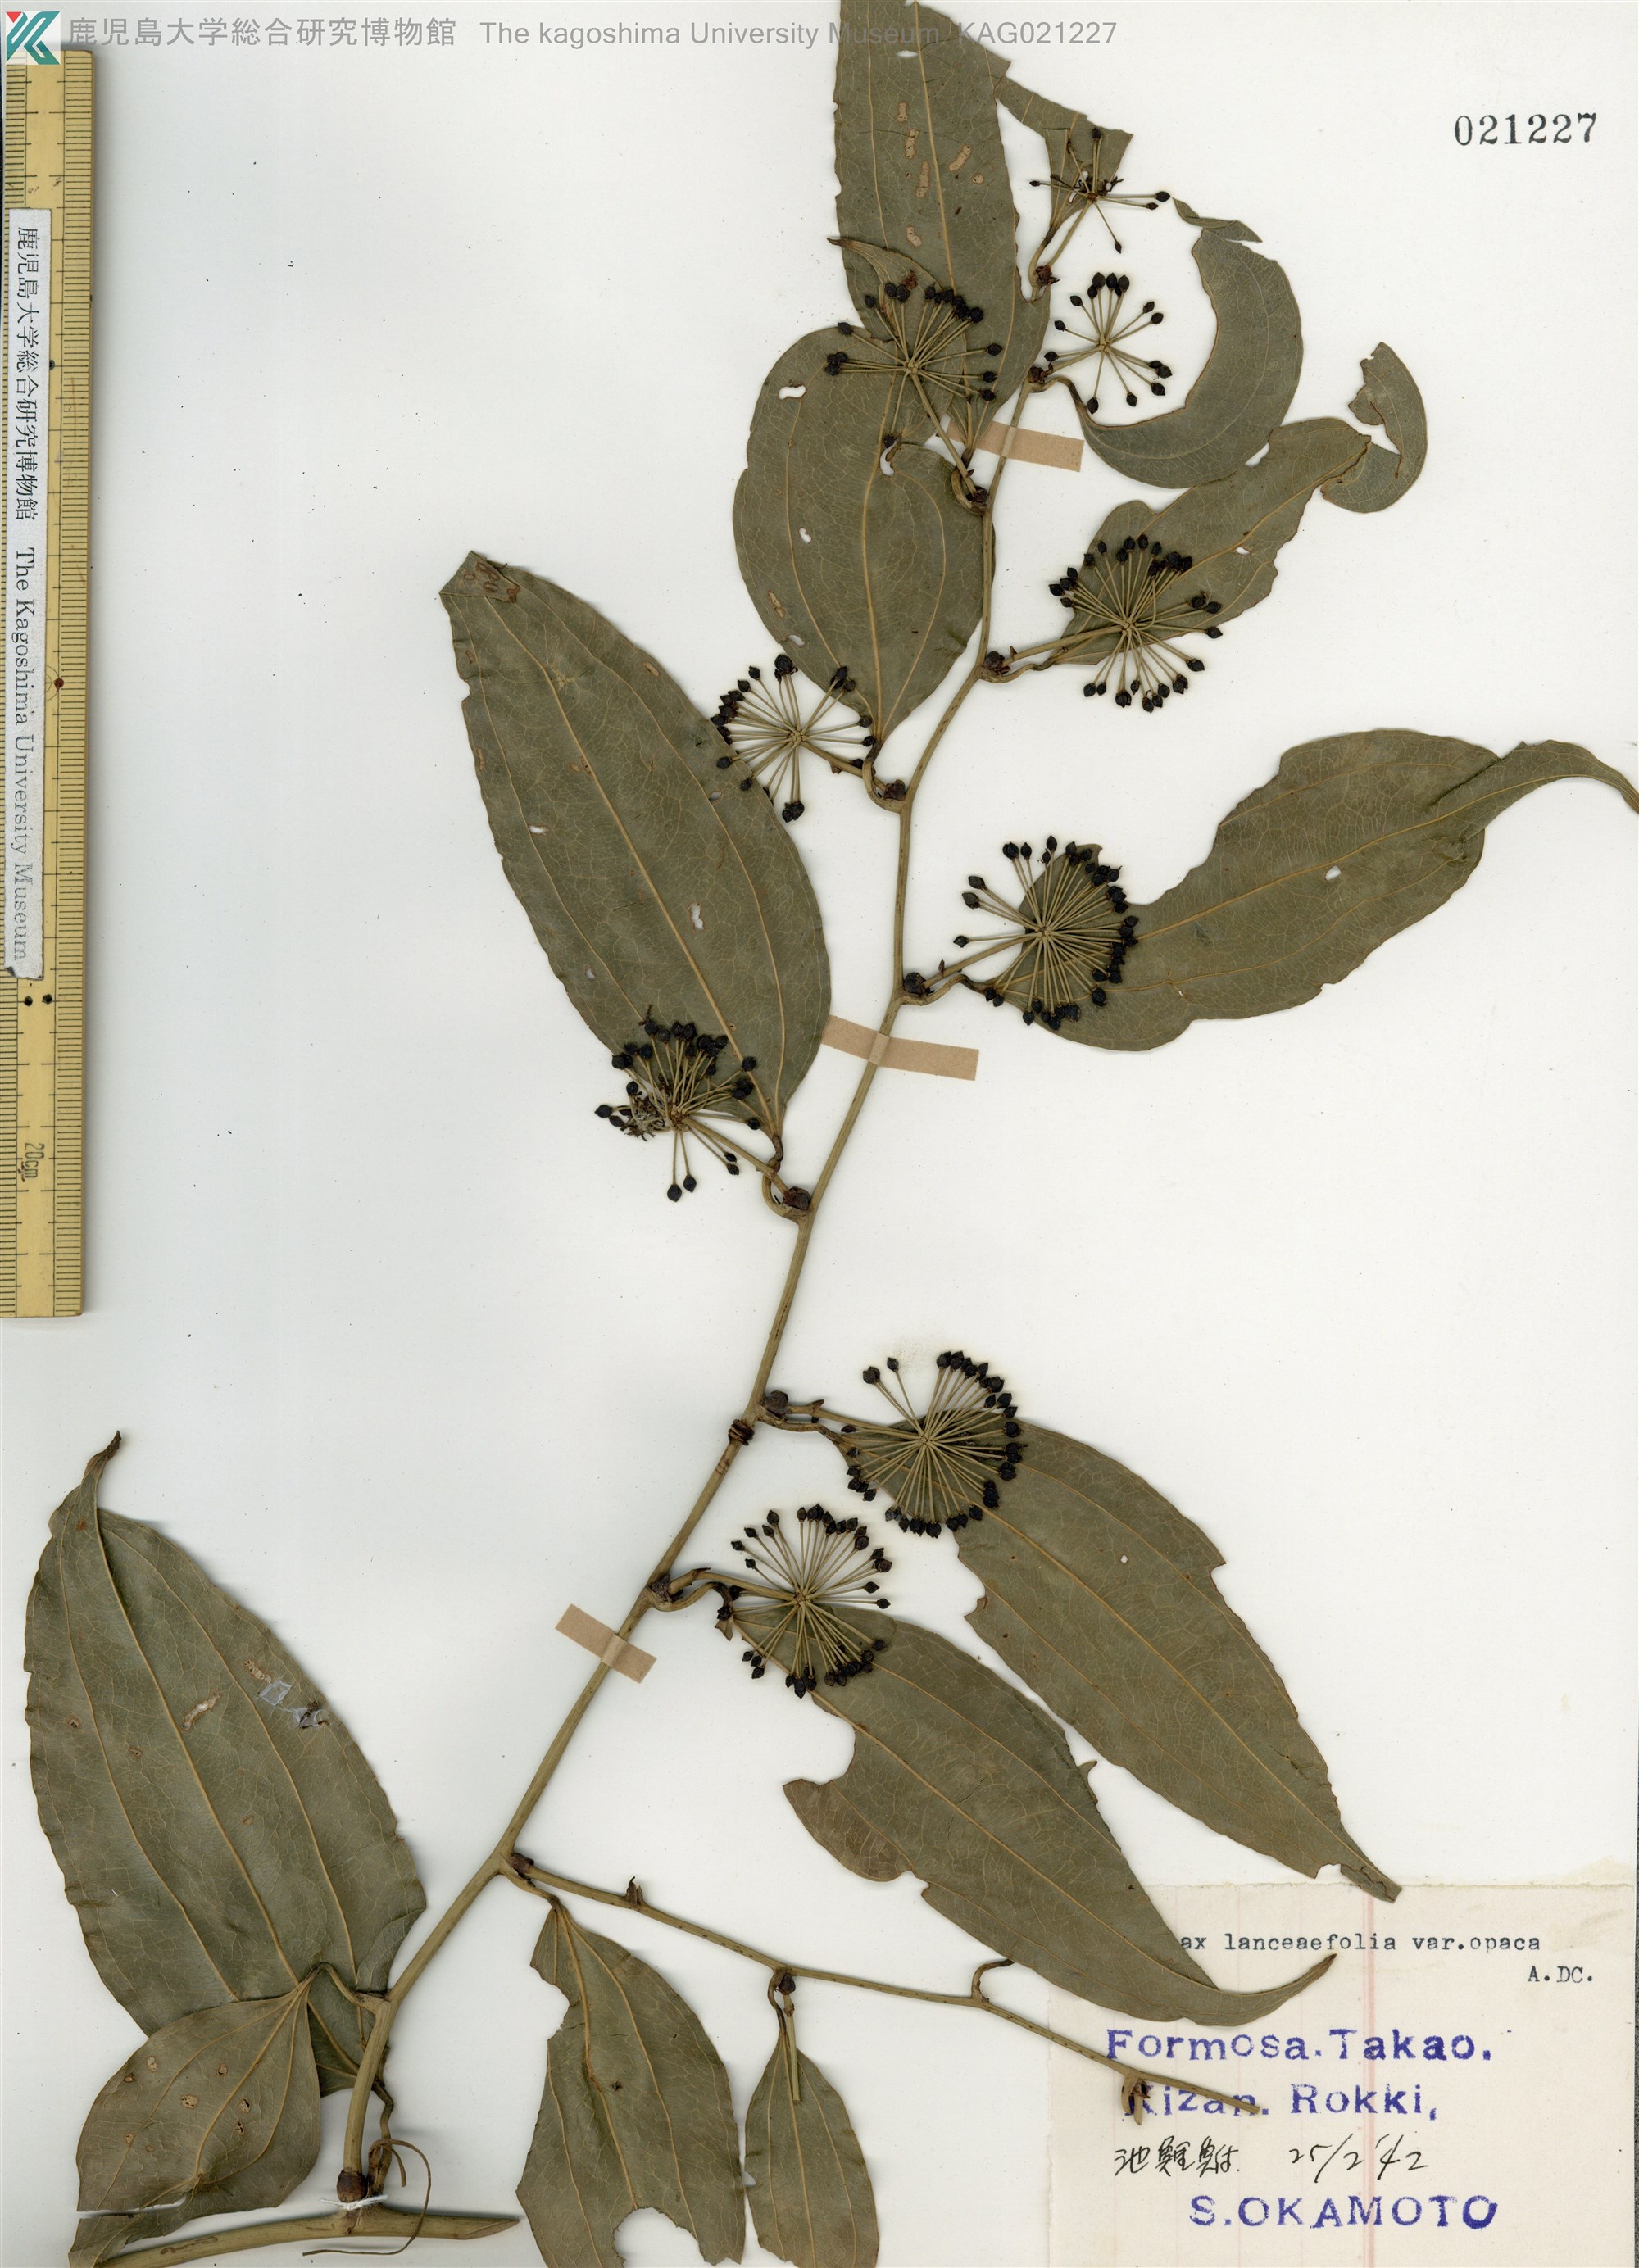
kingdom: Plantae
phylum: Tracheophyta
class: Liliopsida
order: Liliales
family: Smilacaceae
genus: Smilax
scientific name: Smilax laevis
